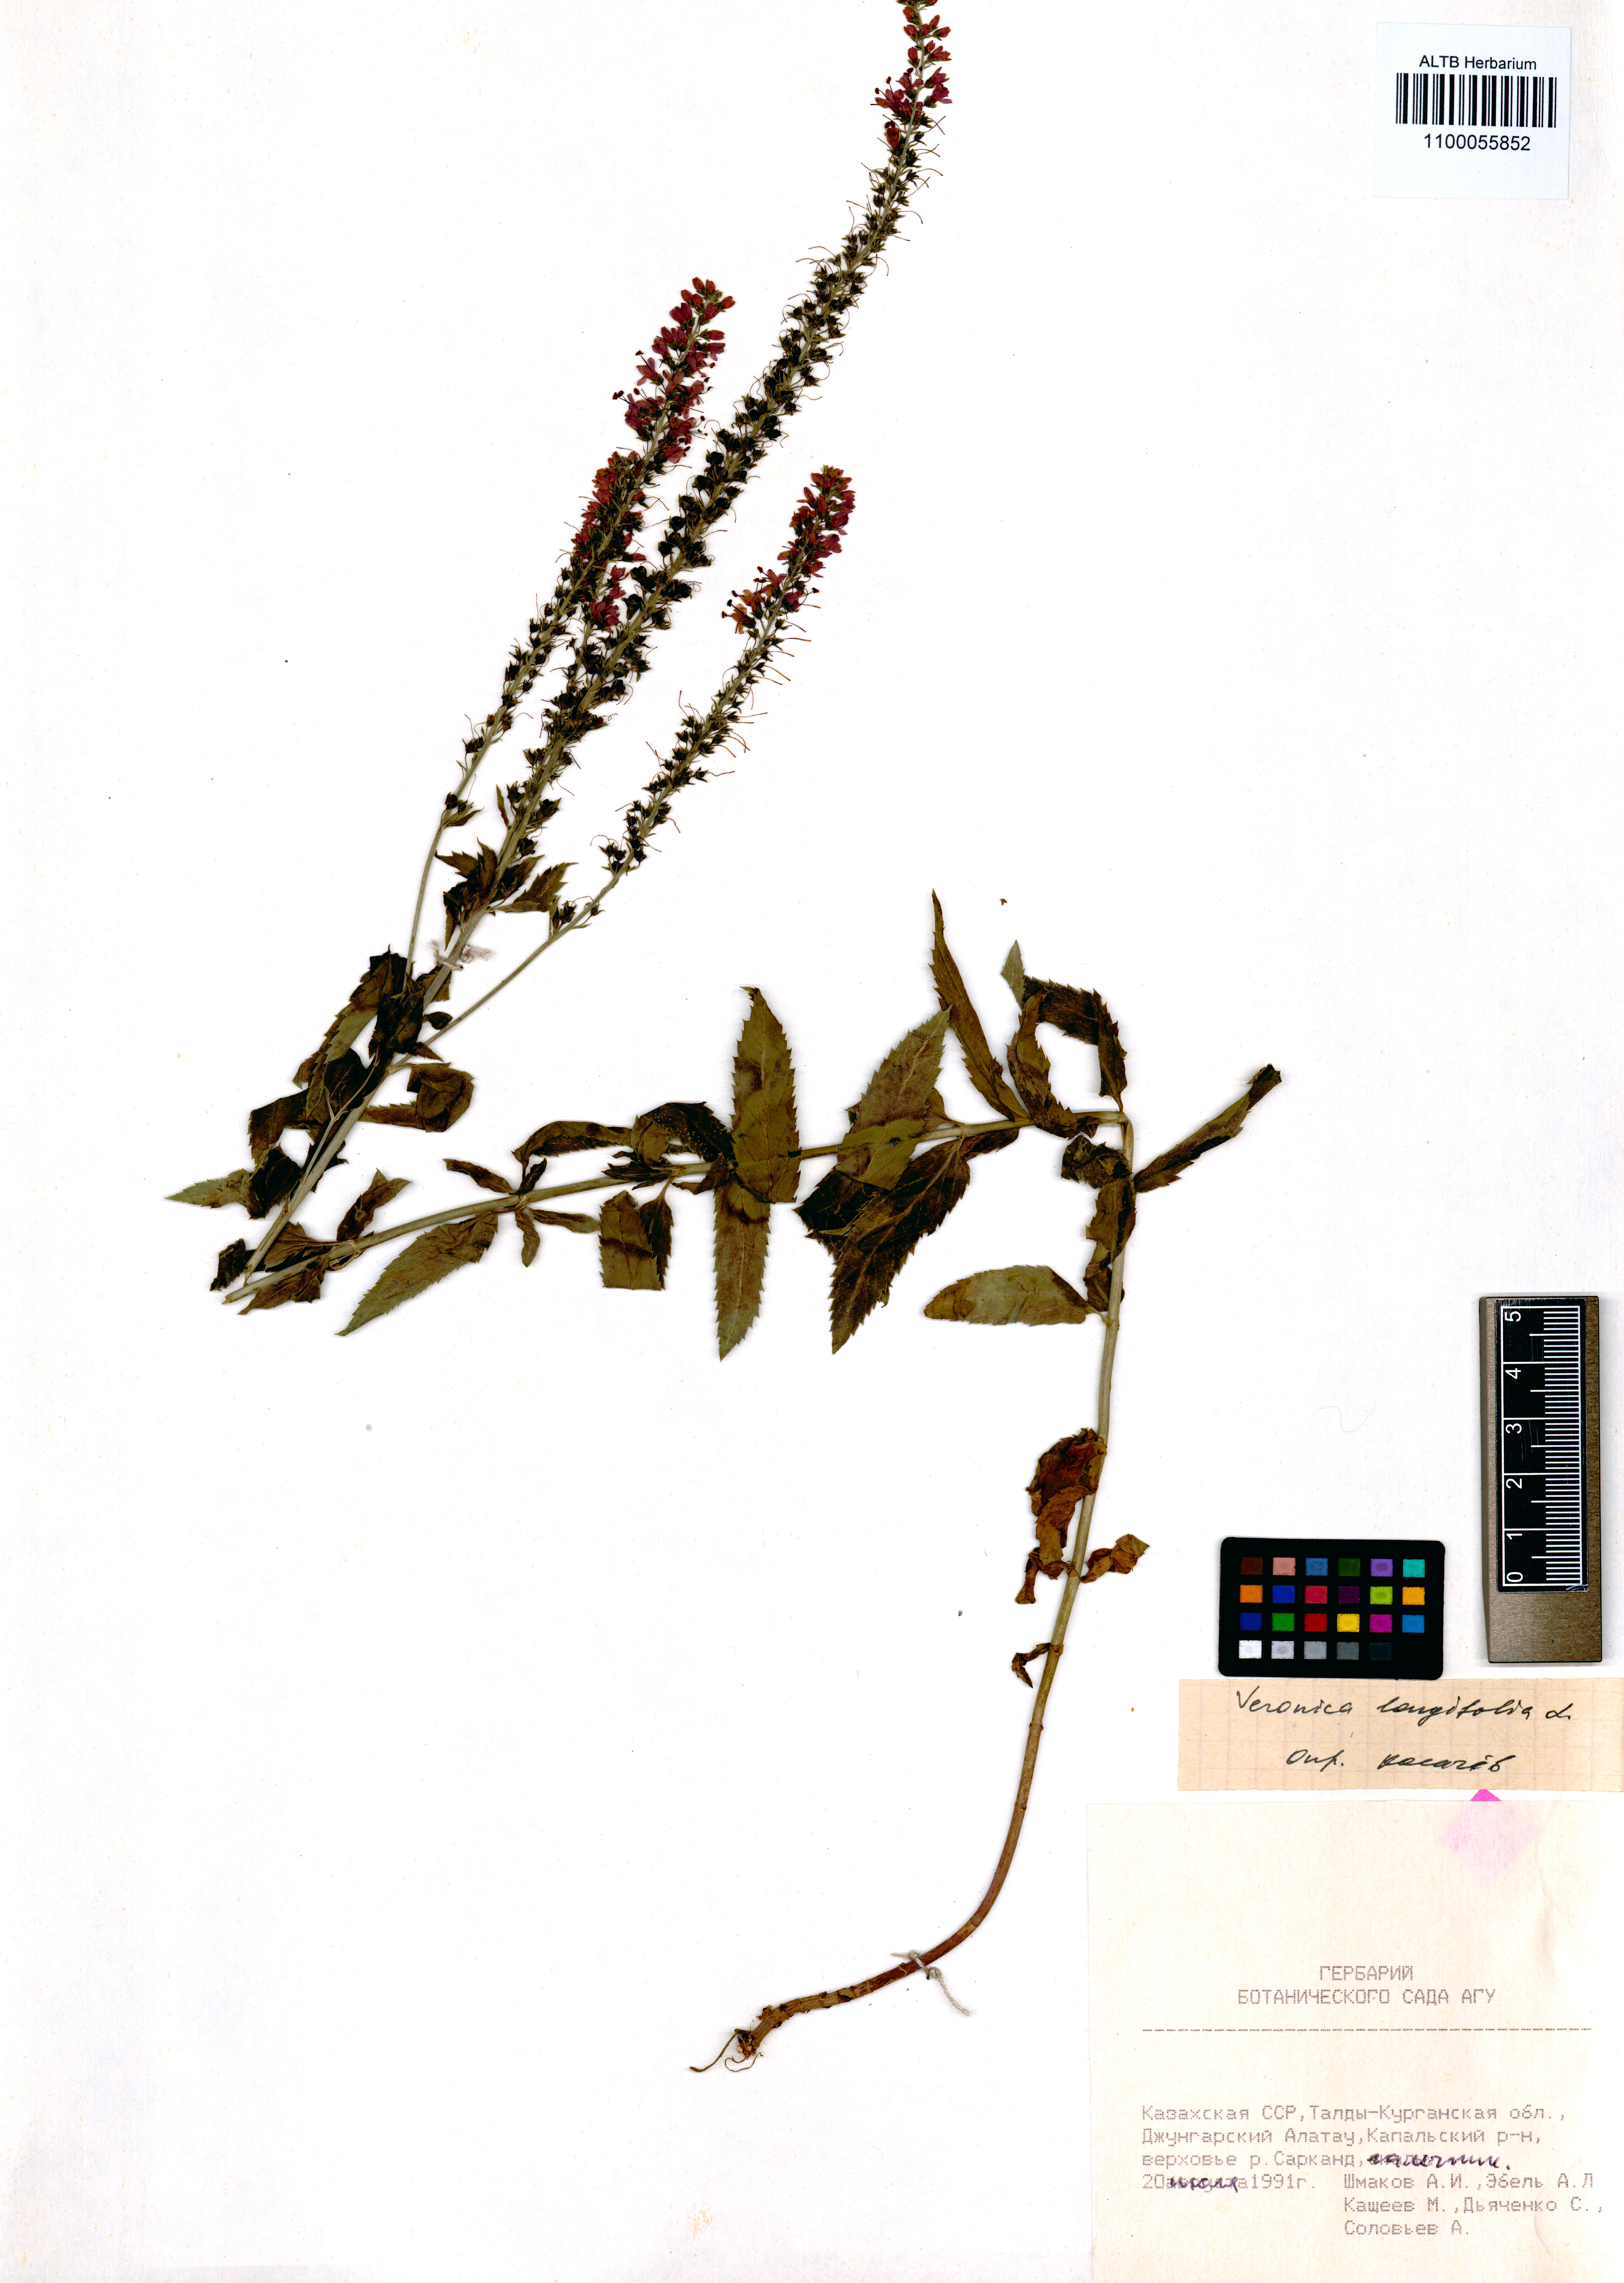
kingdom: Plantae
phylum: Tracheophyta
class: Magnoliopsida
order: Lamiales
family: Plantaginaceae
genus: Veronica
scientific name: Veronica longifolia
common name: Garden speedwell
